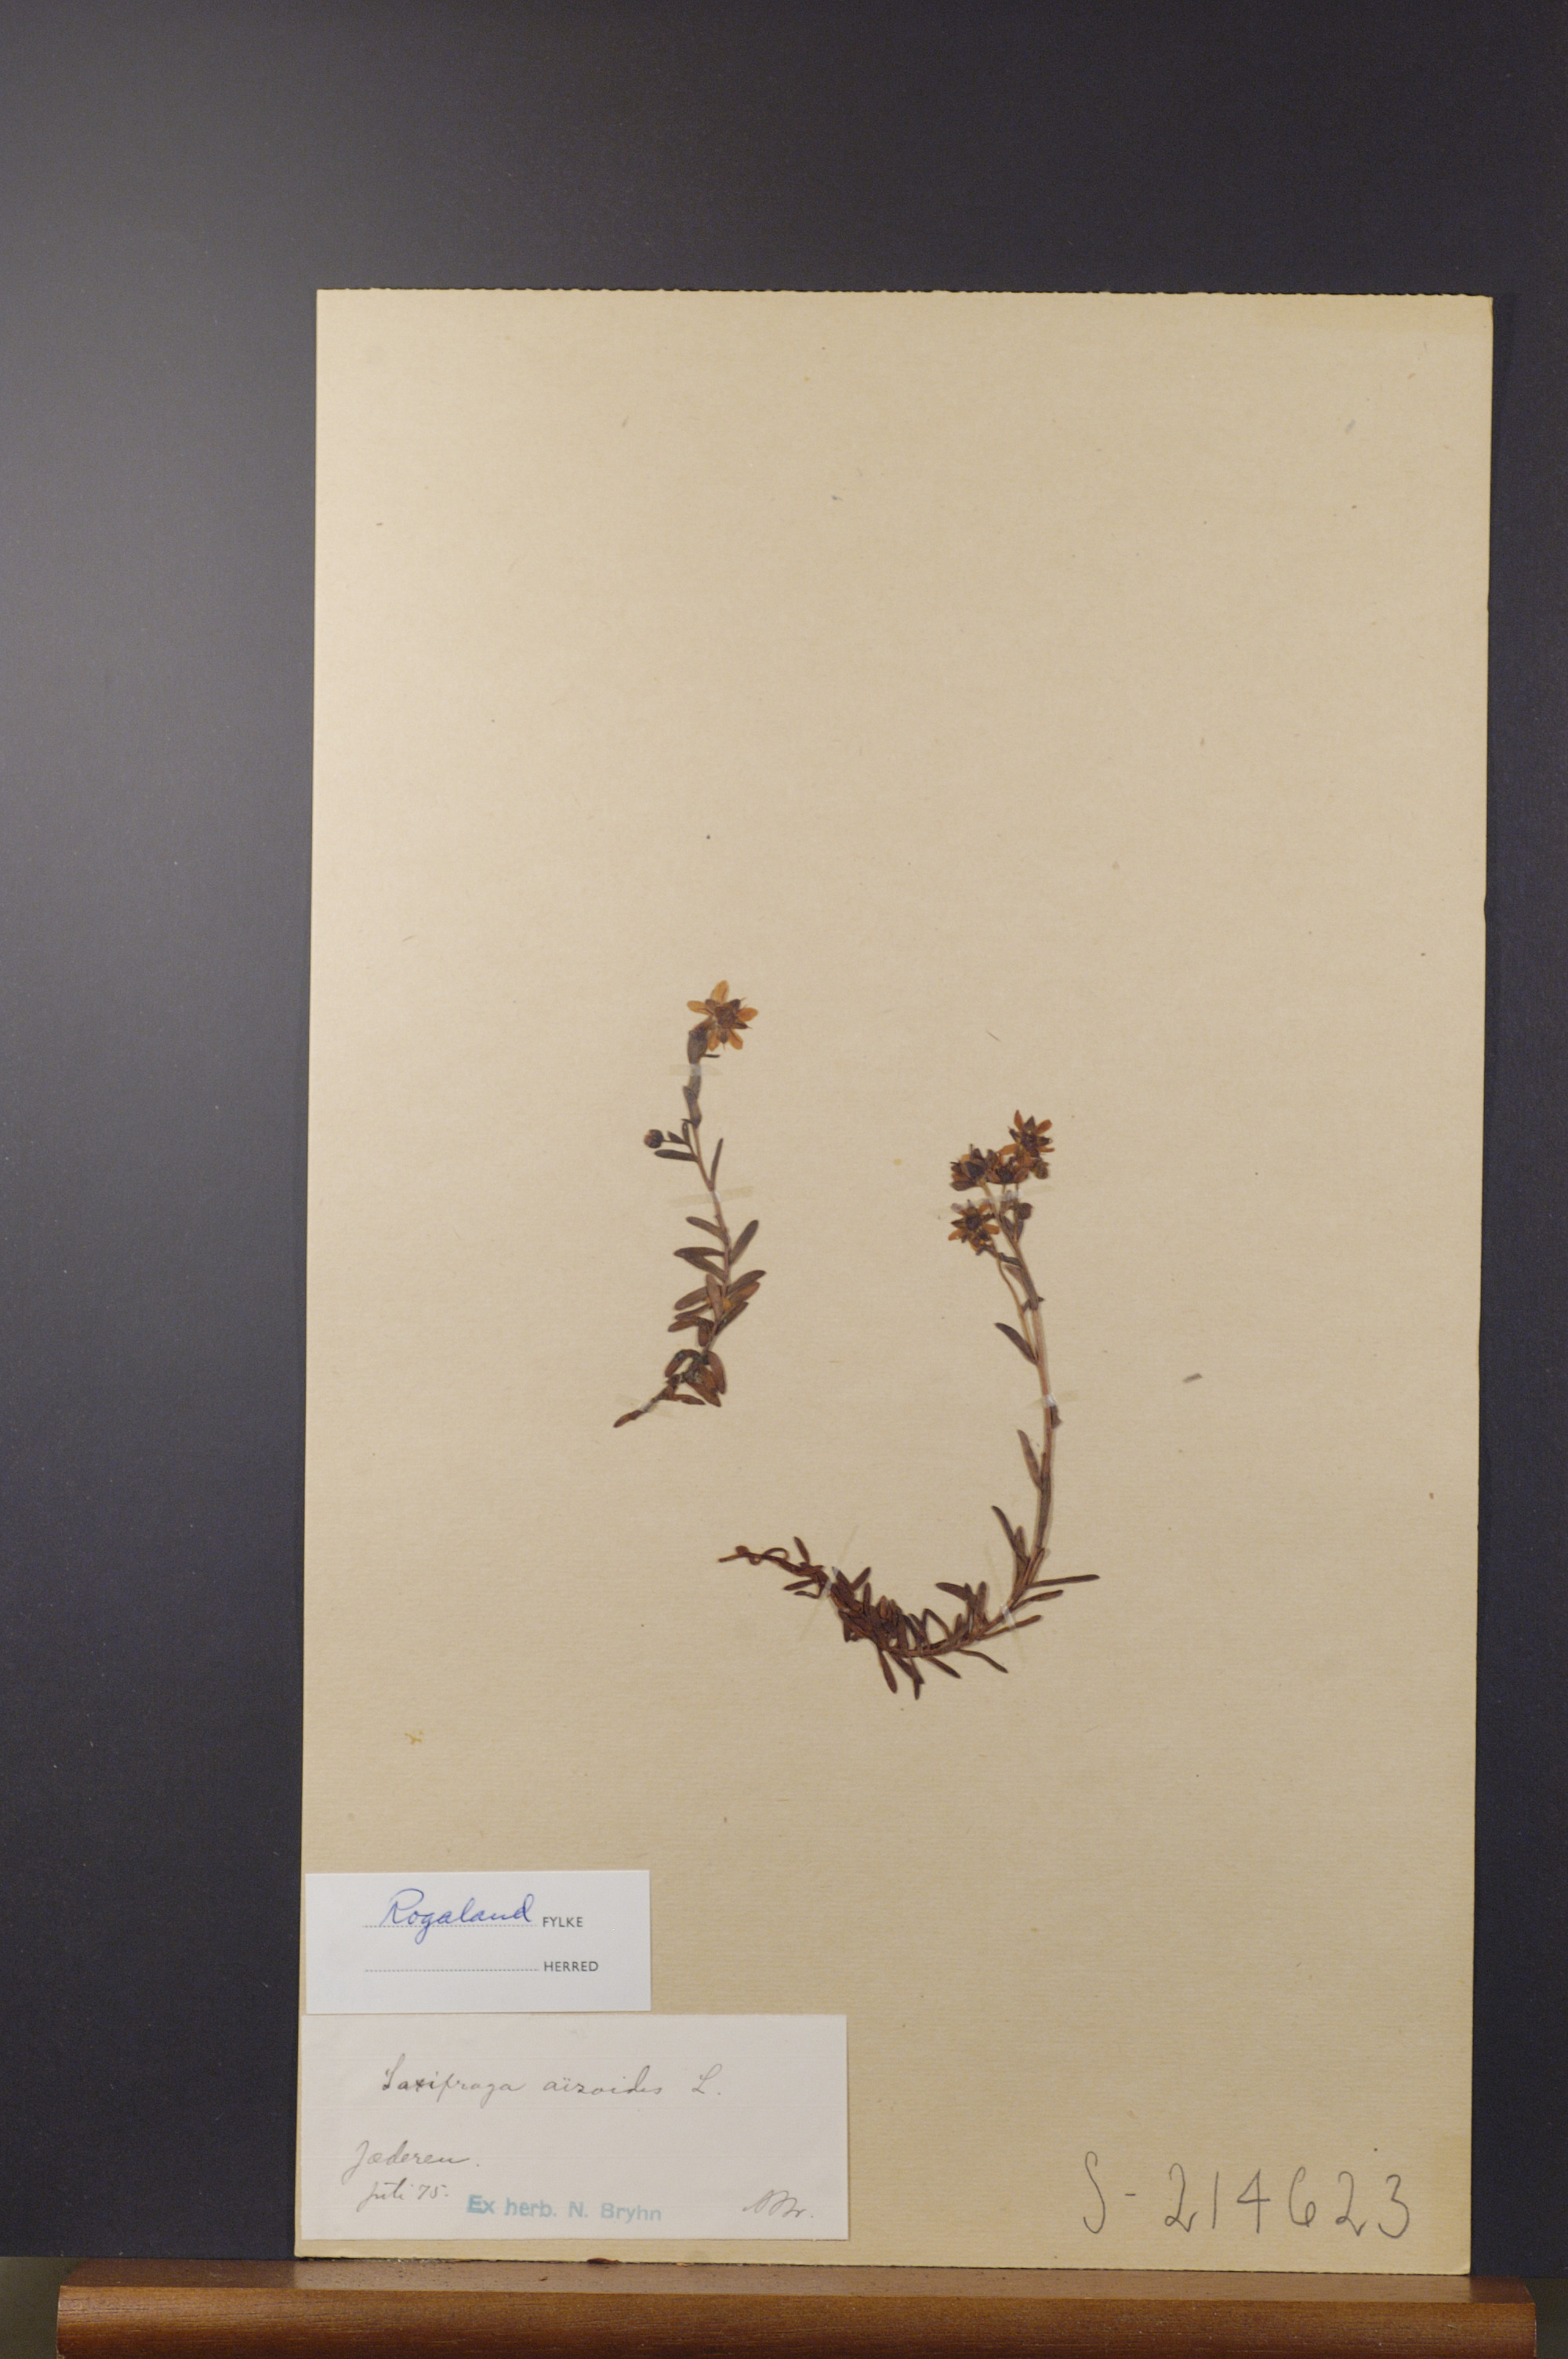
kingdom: Plantae
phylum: Tracheophyta
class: Magnoliopsida
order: Saxifragales
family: Saxifragaceae
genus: Saxifraga
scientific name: Saxifraga aizoides
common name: Yellow mountain saxifrage
